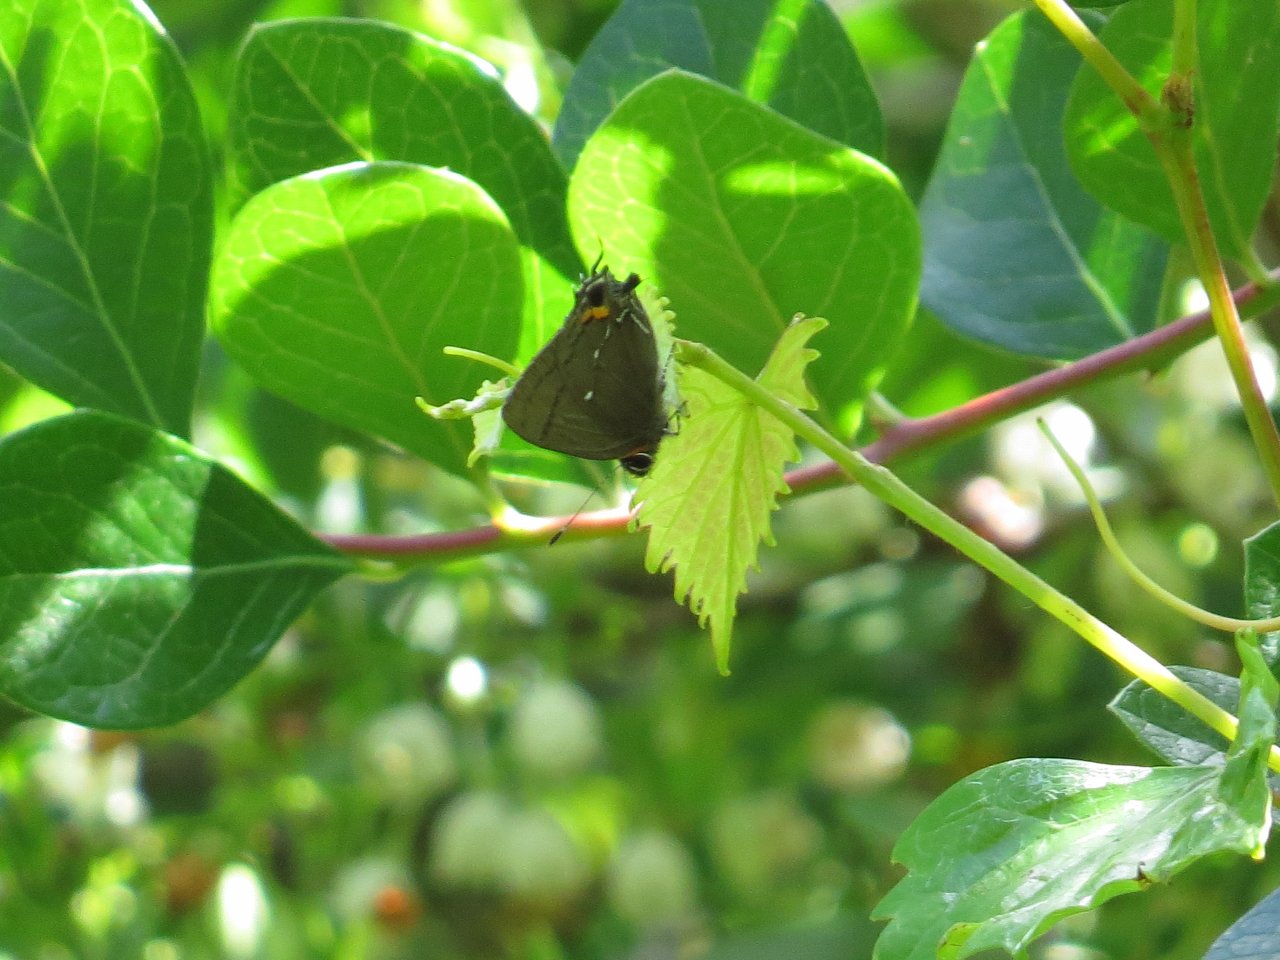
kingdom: Animalia
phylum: Arthropoda
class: Insecta
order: Lepidoptera
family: Lycaenidae
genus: Thecla
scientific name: Thecla angelia
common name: Fulvous Hairstreak
